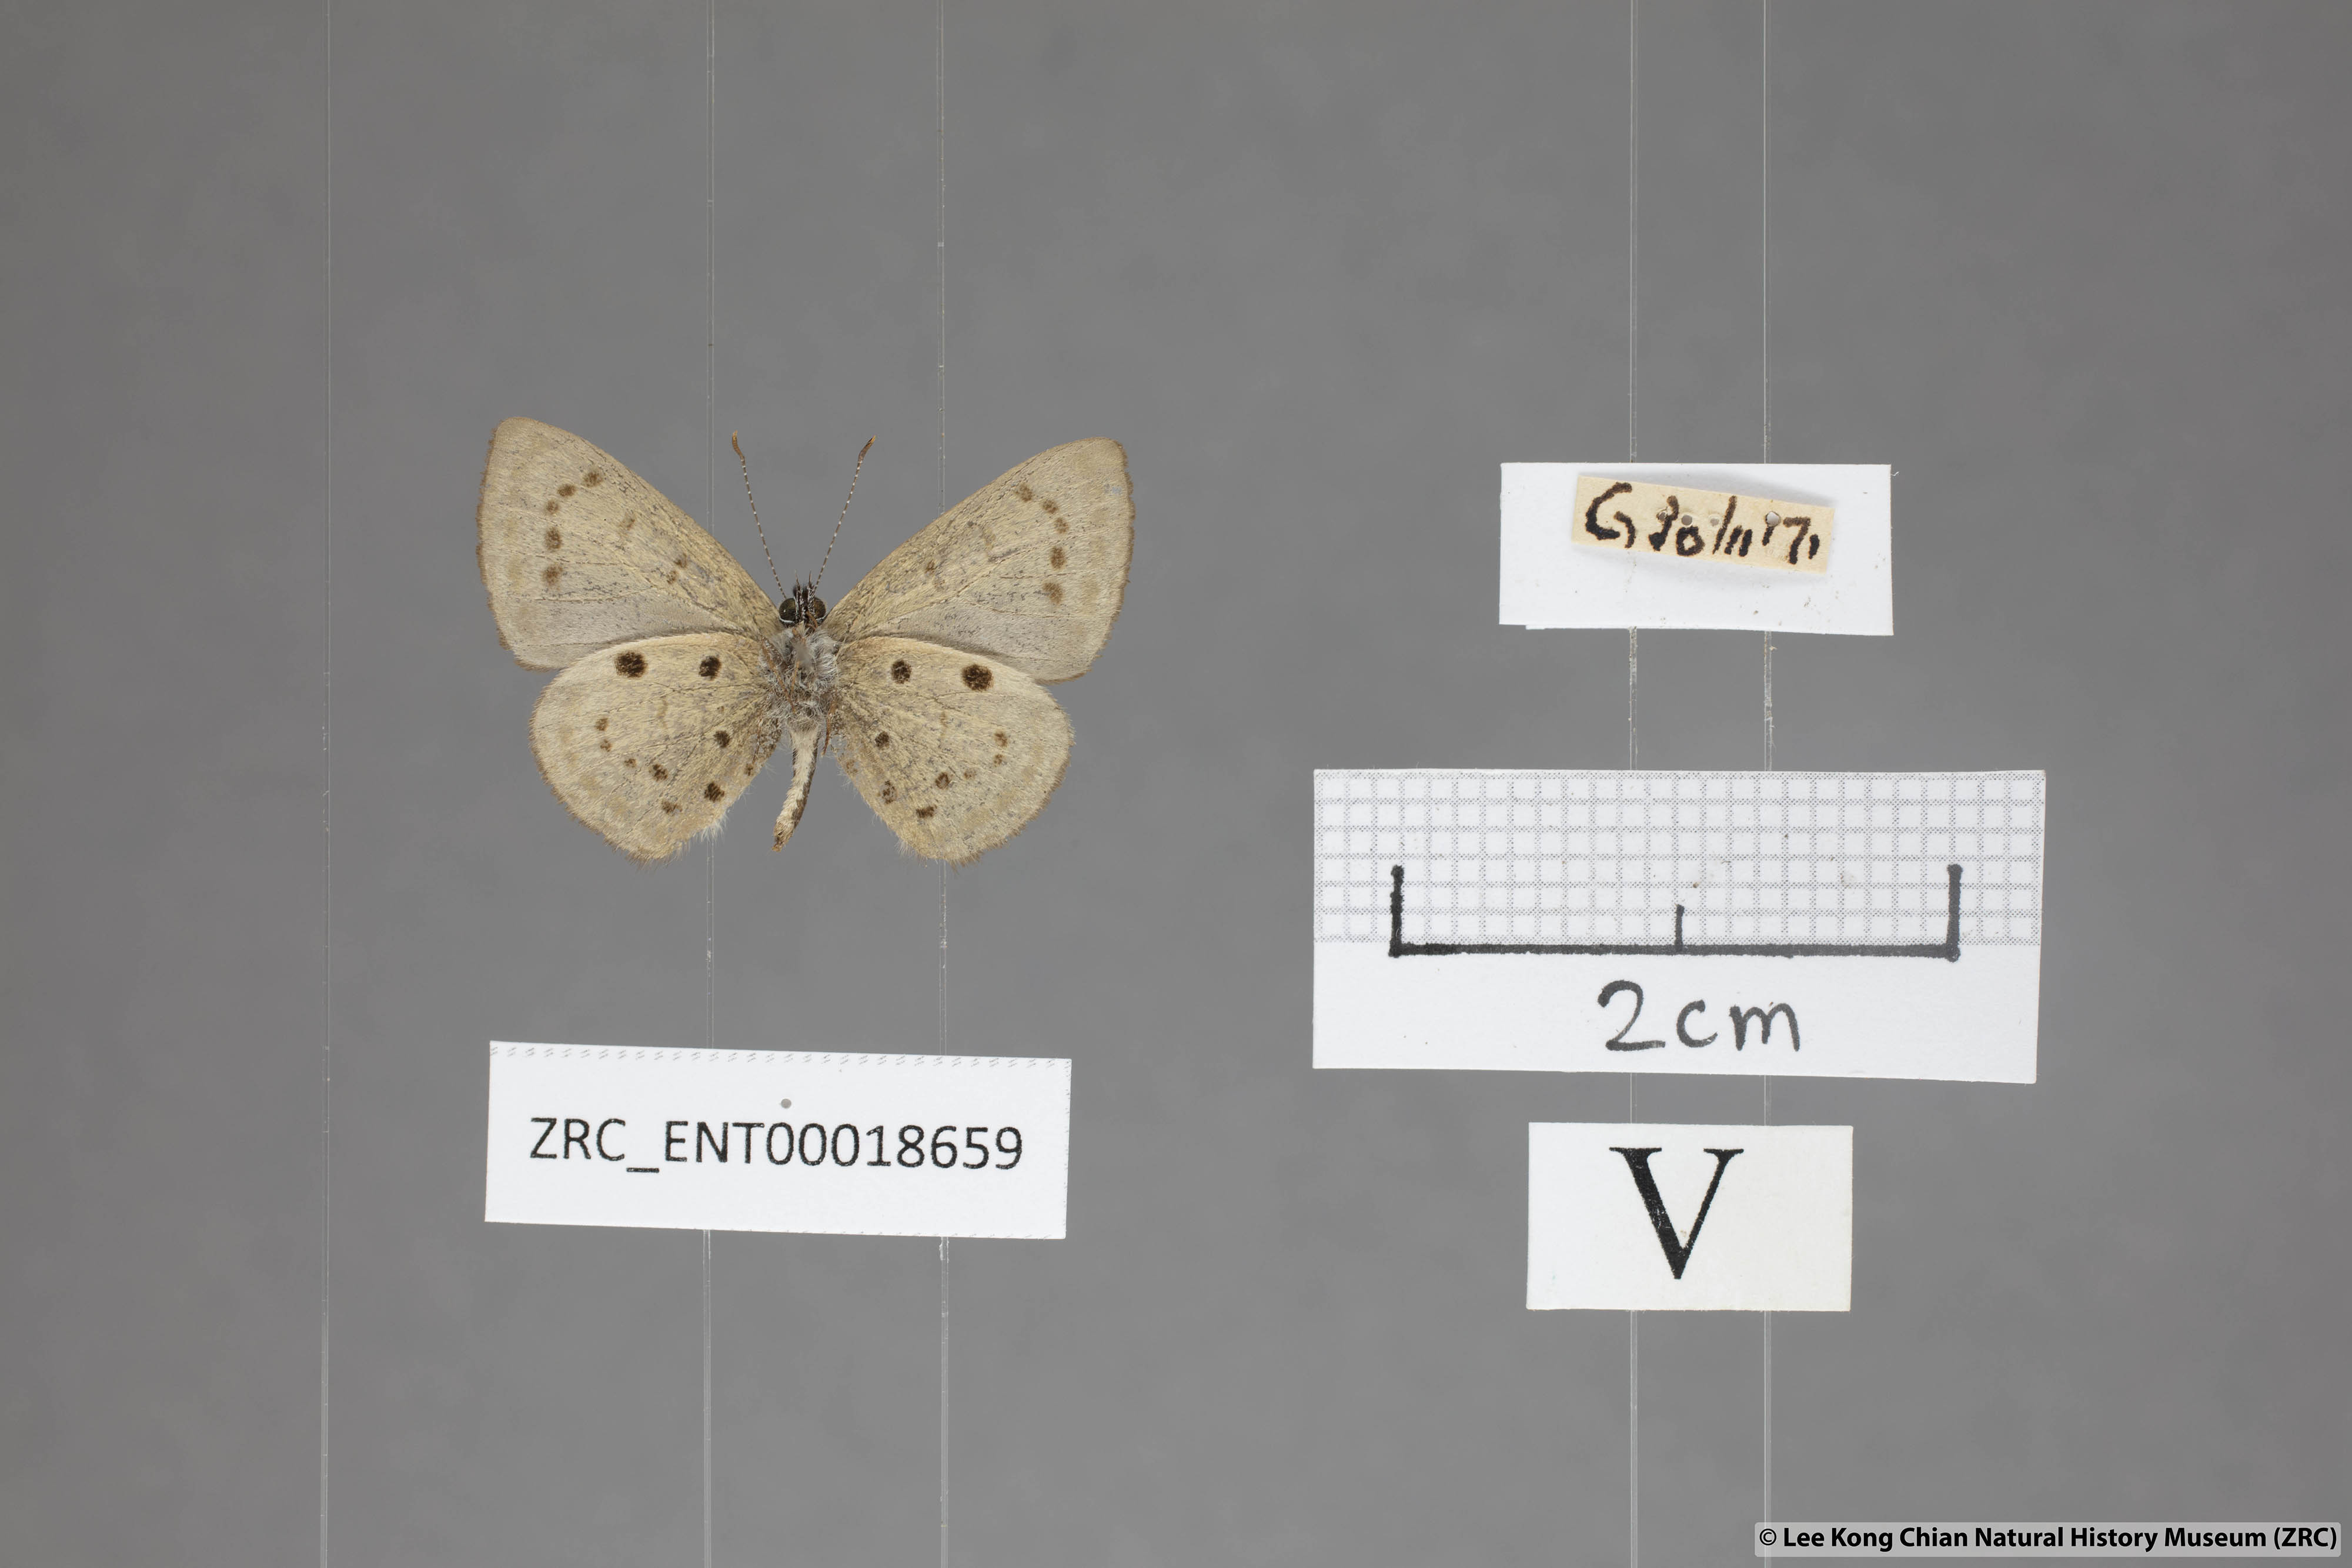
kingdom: Animalia
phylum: Arthropoda
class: Insecta
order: Lepidoptera
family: Lycaenidae
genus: Una
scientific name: Una usta
